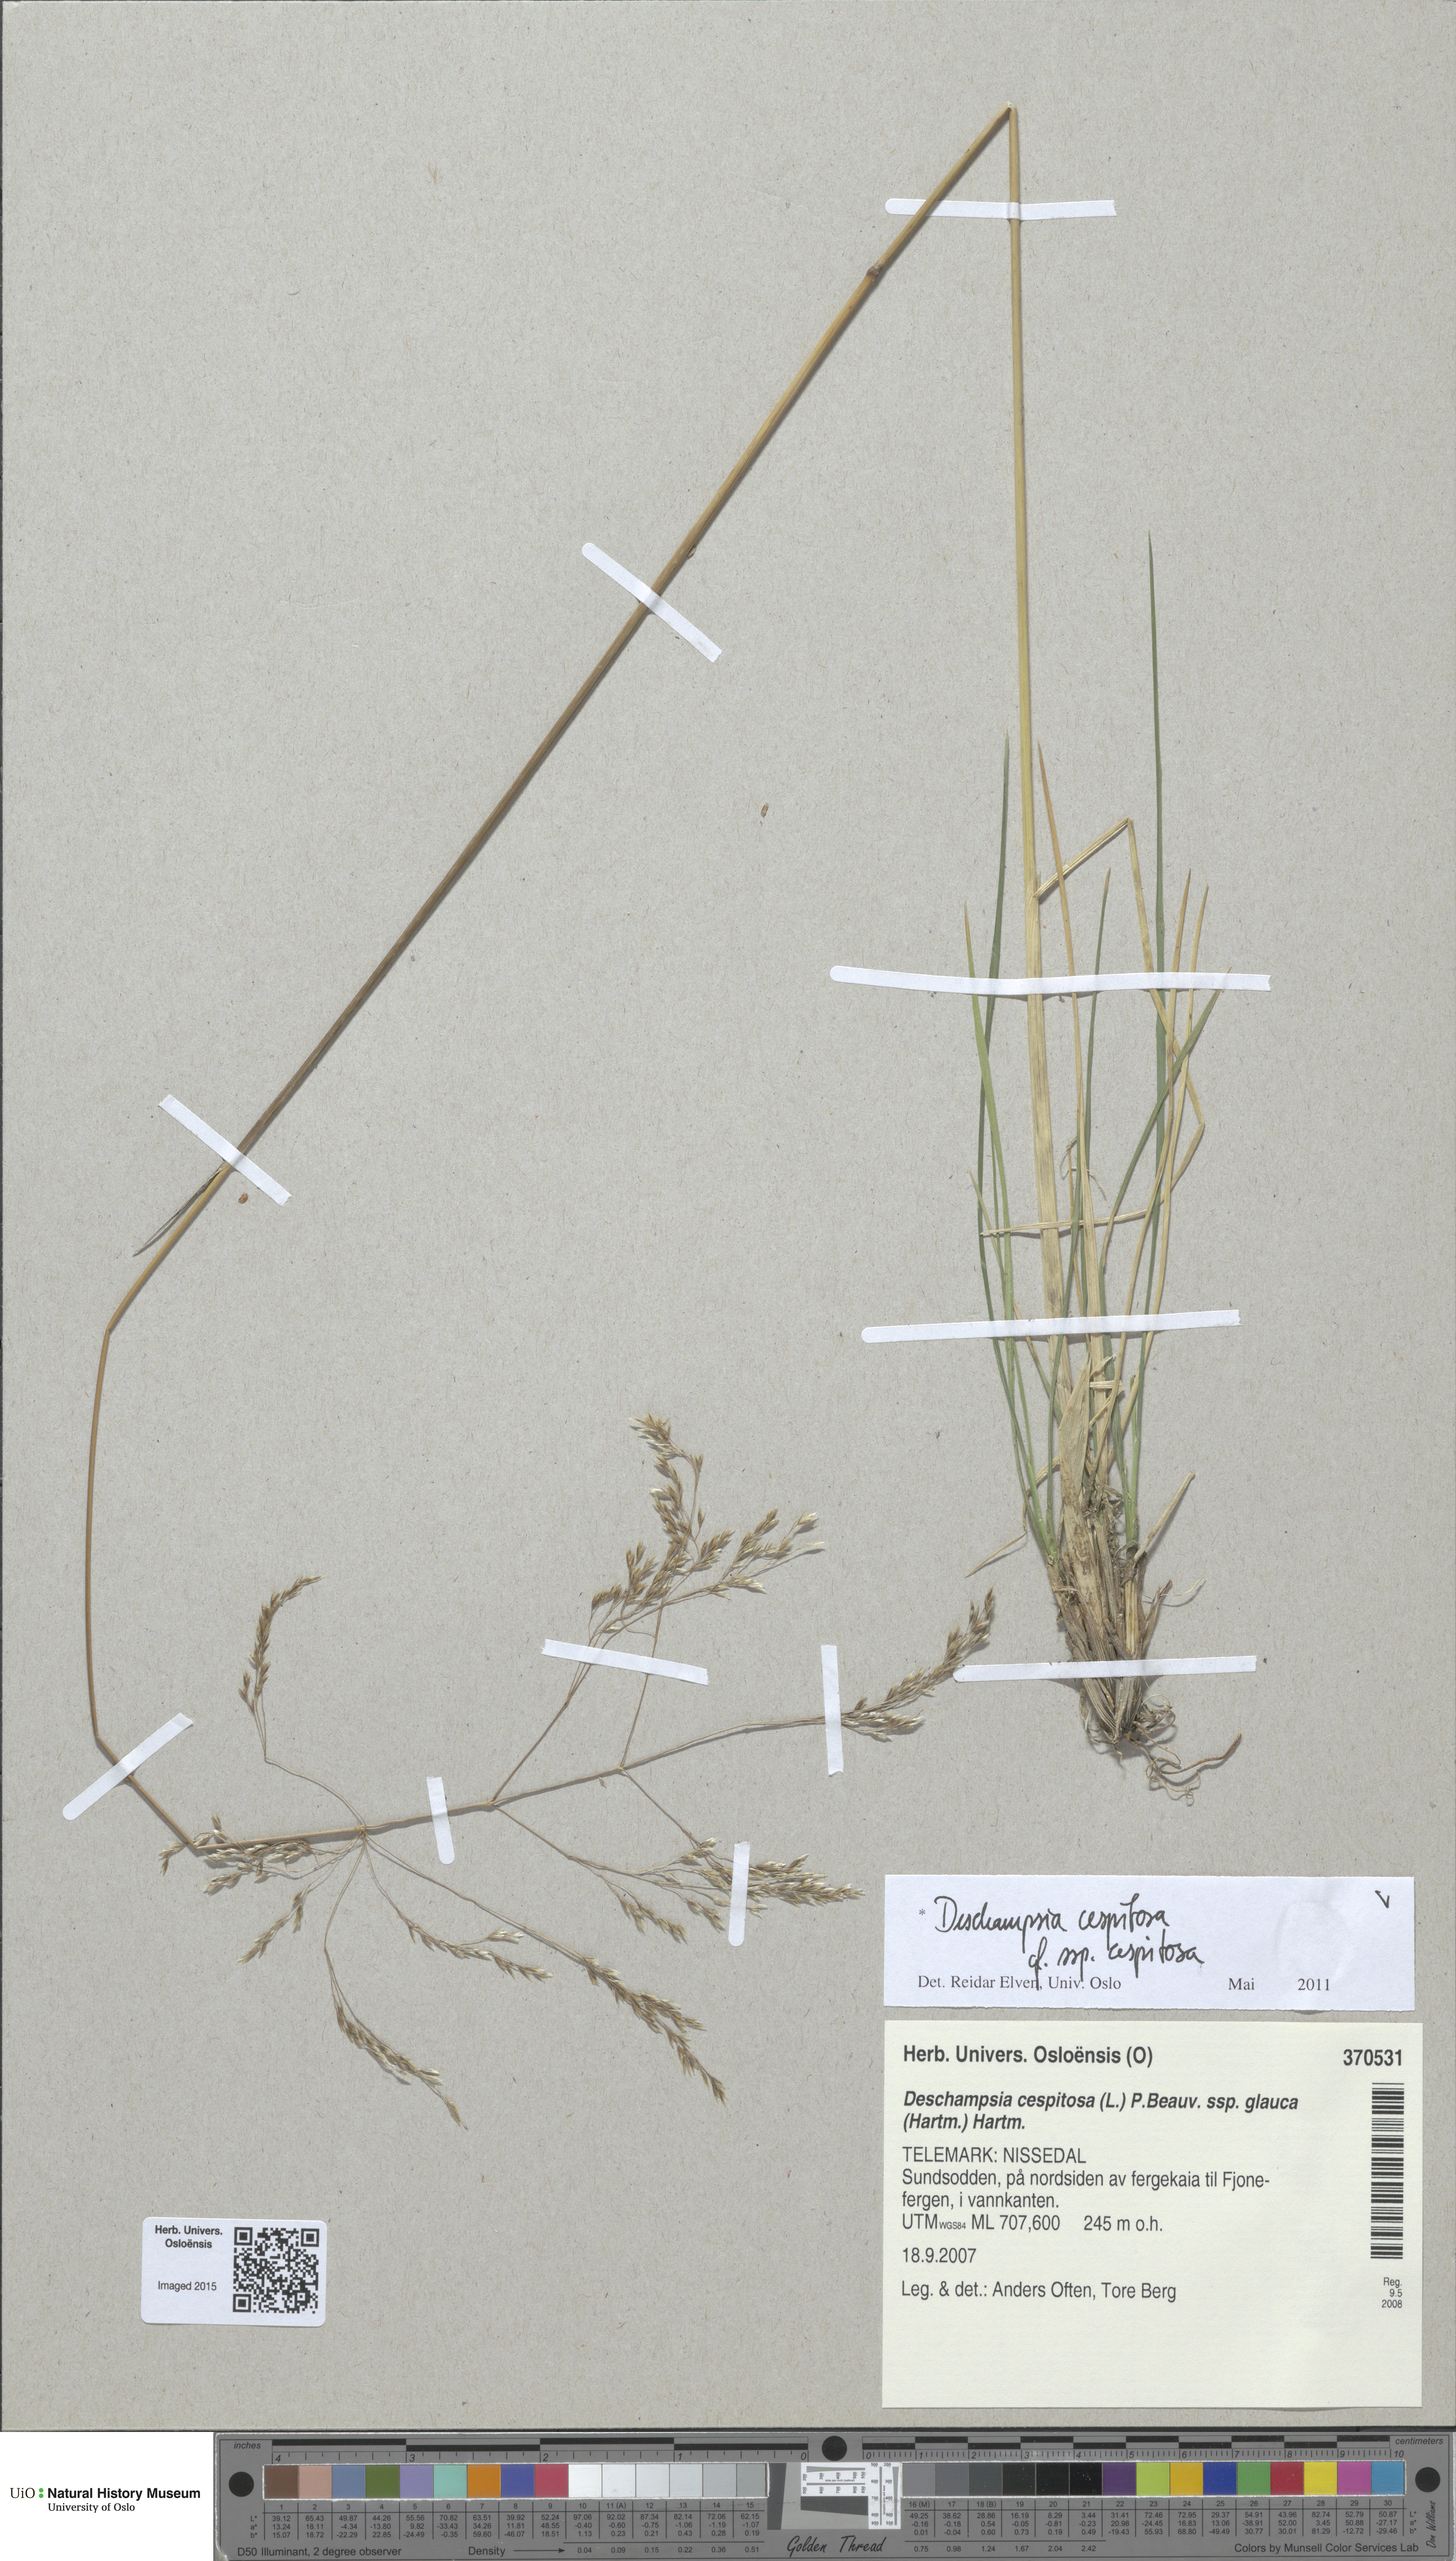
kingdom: Plantae
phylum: Tracheophyta
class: Liliopsida
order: Poales
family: Poaceae
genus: Deschampsia
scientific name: Deschampsia cespitosa
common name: Tufted hair-grass
